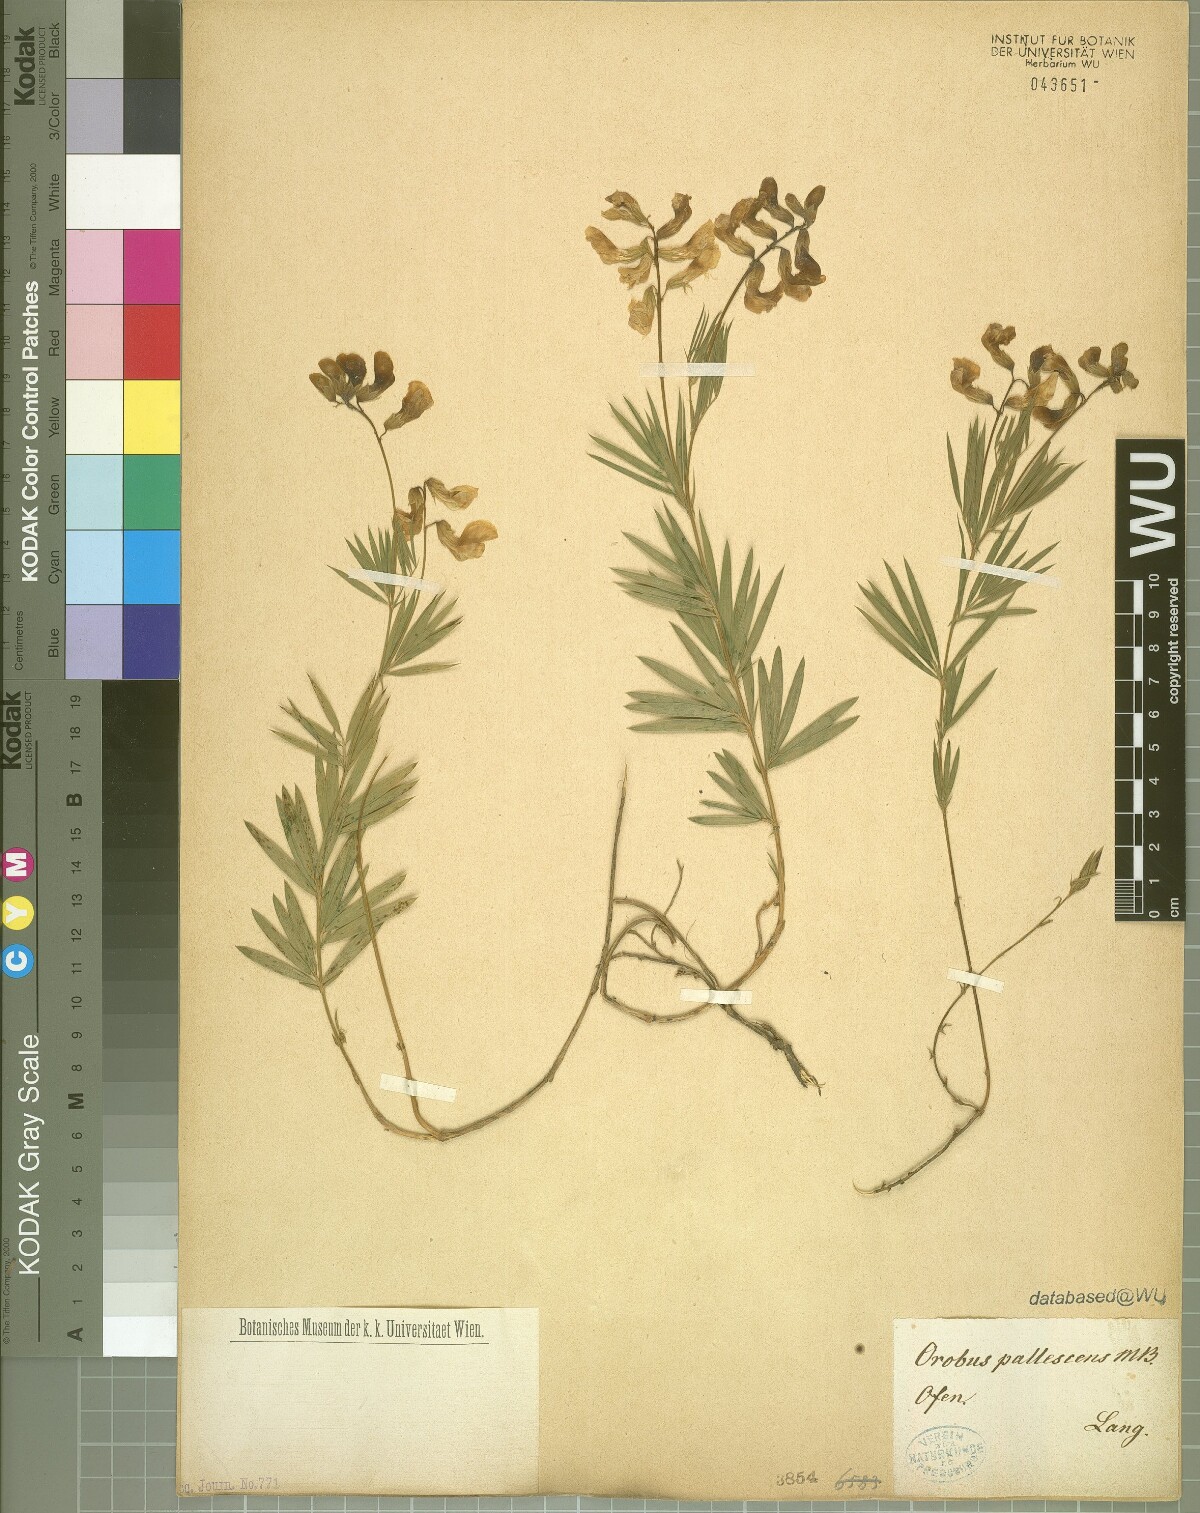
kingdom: Plantae
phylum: Tracheophyta
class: Magnoliopsida
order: Fabales
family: Fabaceae
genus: Lathyrus
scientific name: Lathyrus pallescens
